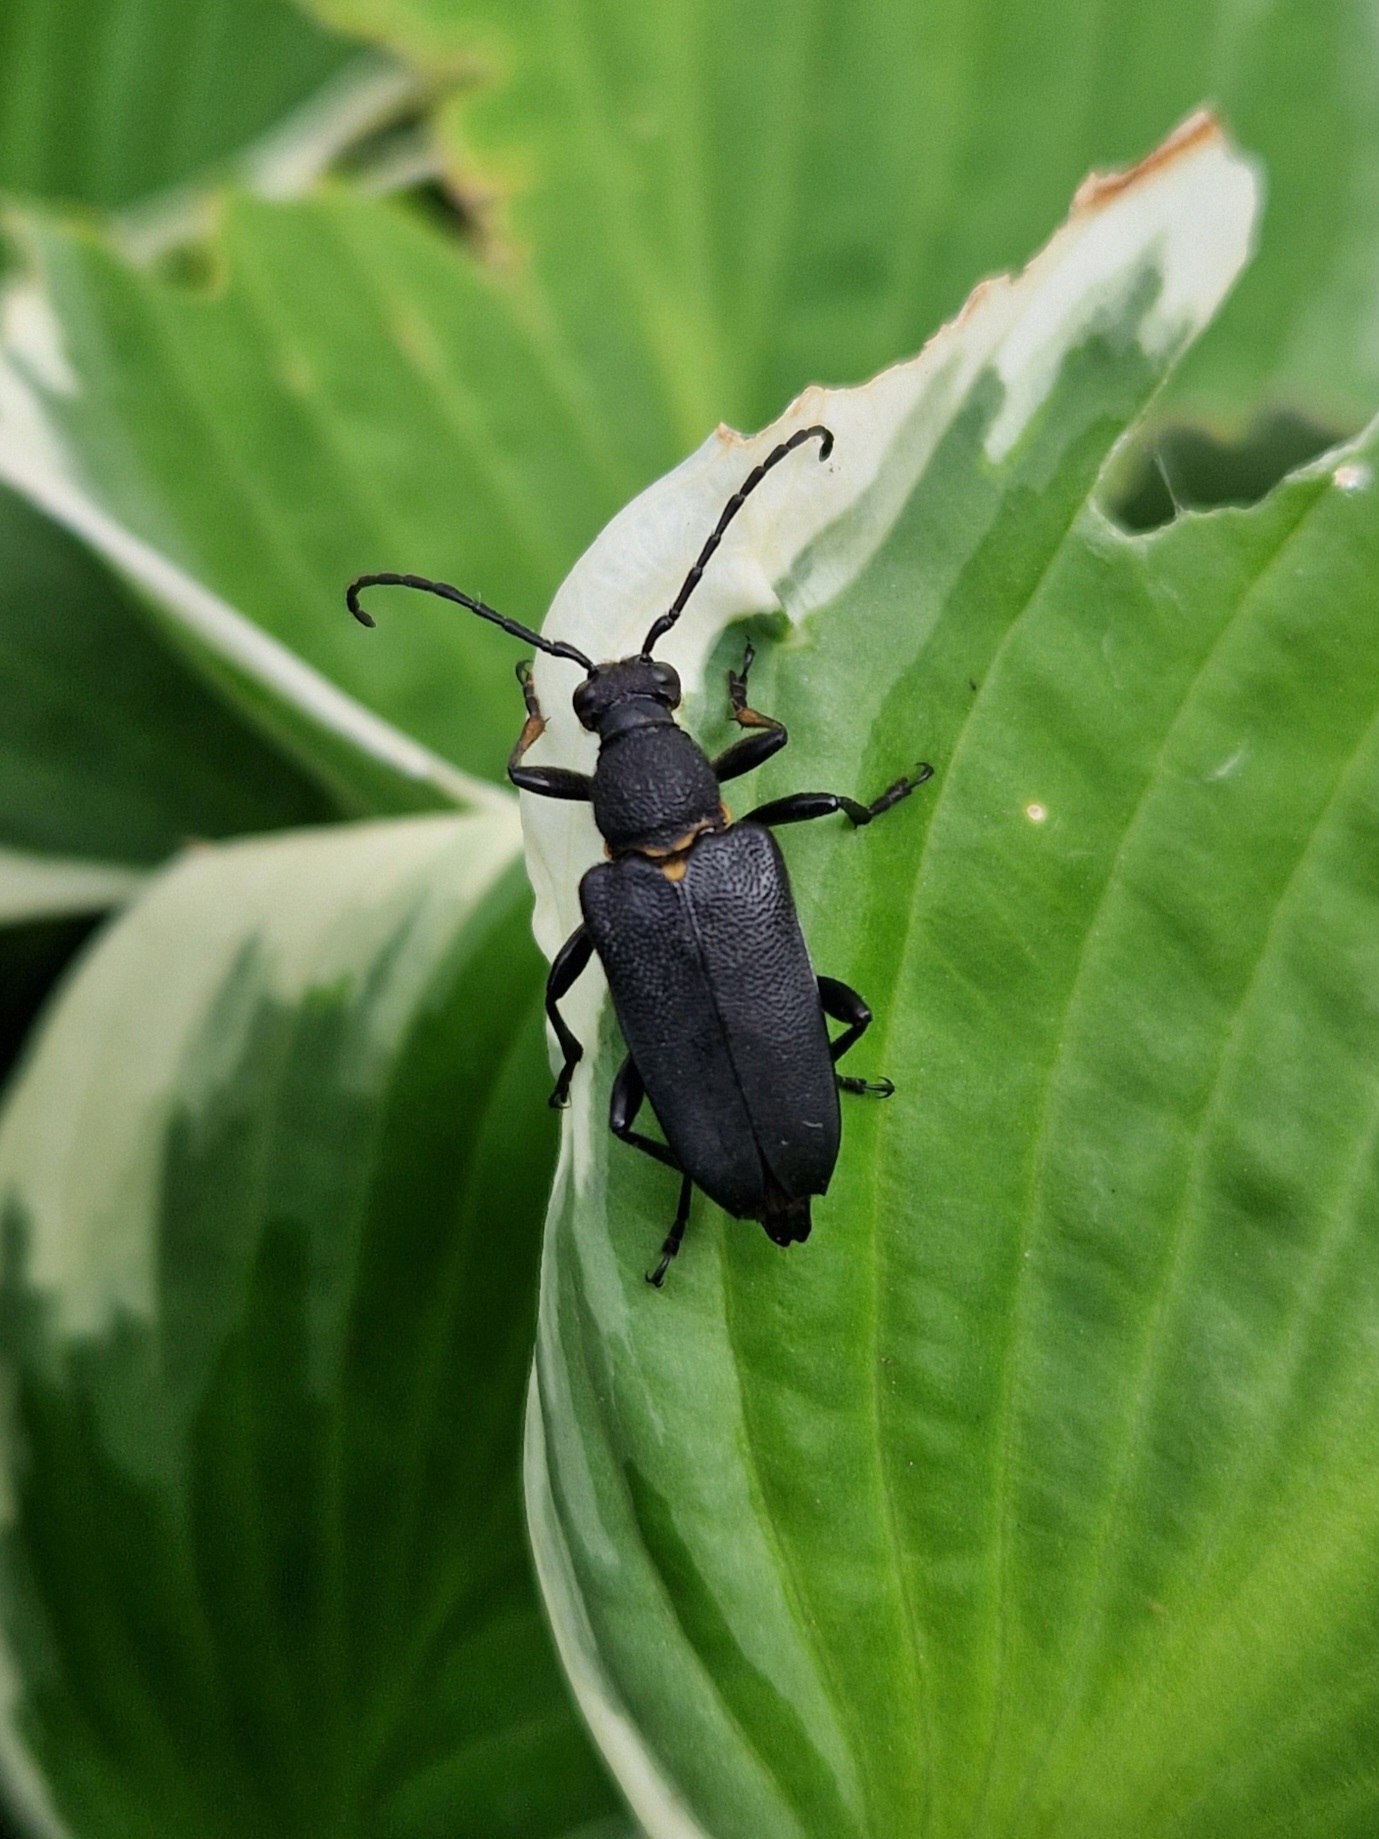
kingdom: Animalia
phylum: Arthropoda
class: Insecta
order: Coleoptera
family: Cerambycidae
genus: Stictoleptura
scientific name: Stictoleptura scutellata
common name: Sort blomsterbuk
